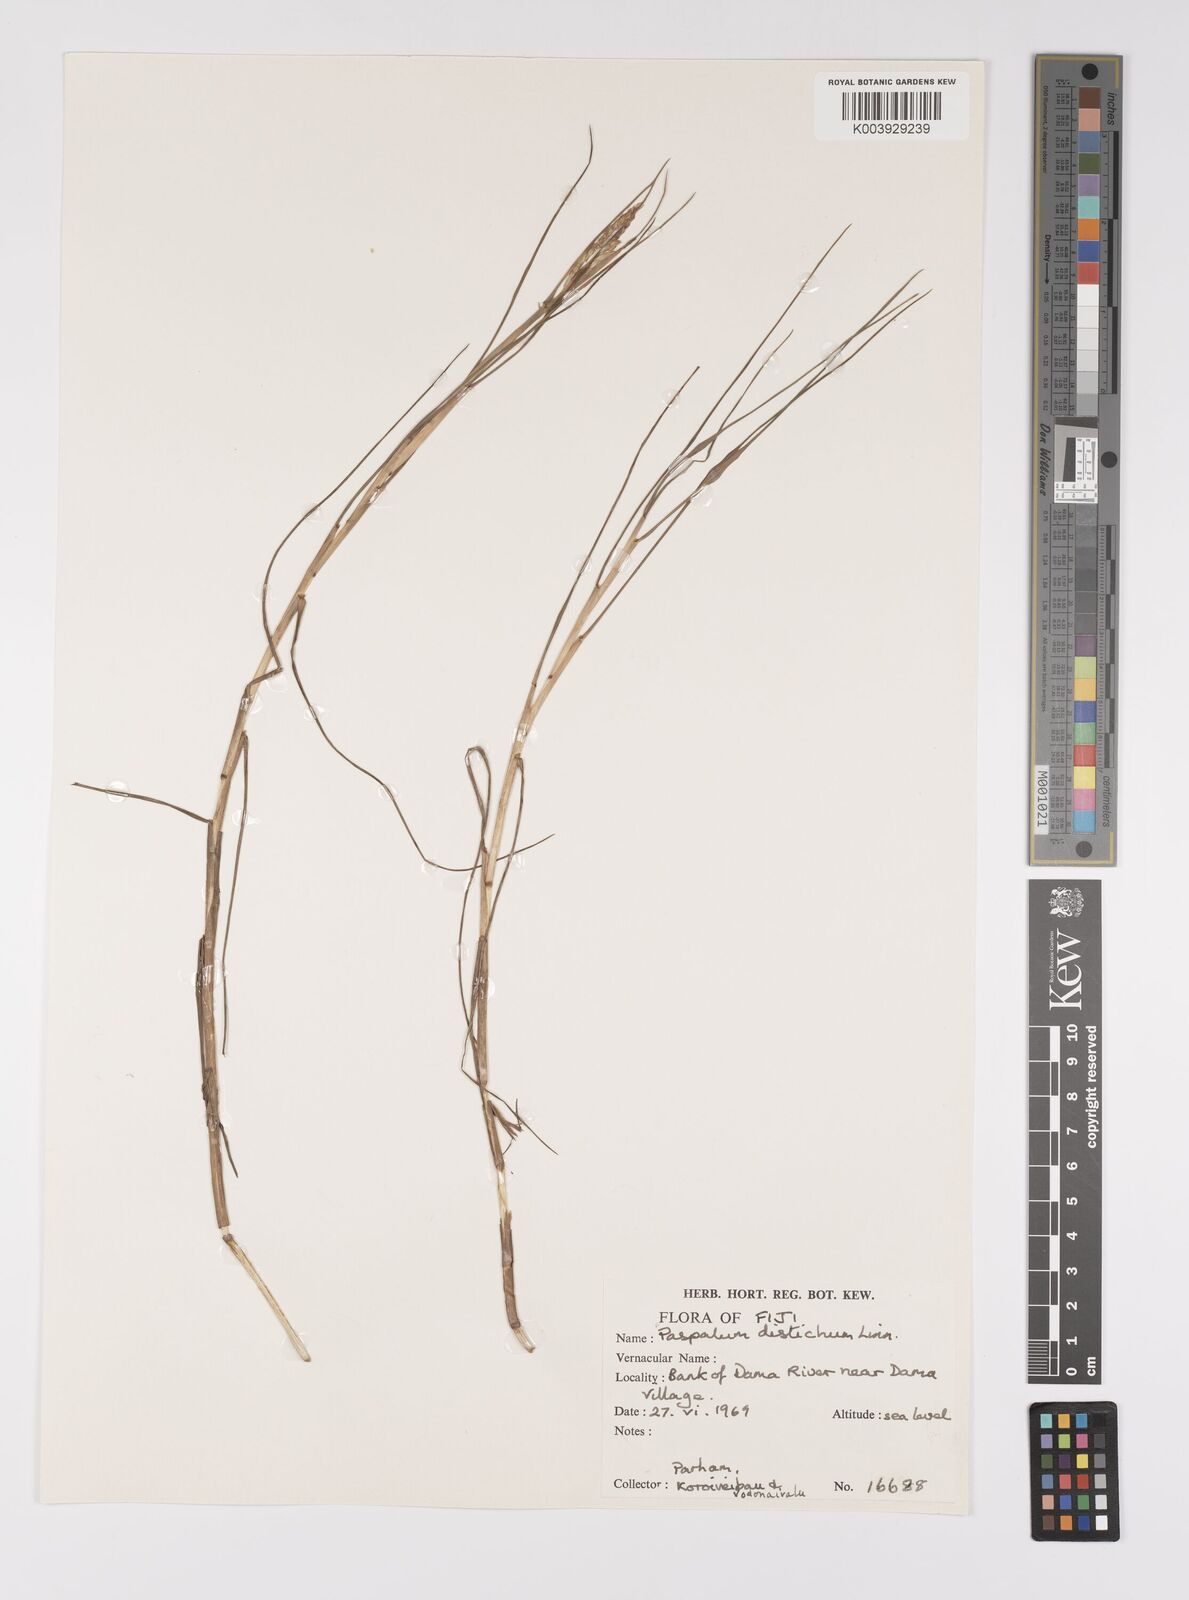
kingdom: Plantae
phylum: Tracheophyta
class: Liliopsida
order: Poales
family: Poaceae
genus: Paspalum
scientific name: Paspalum vaginatum
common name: Seashore paspalum
